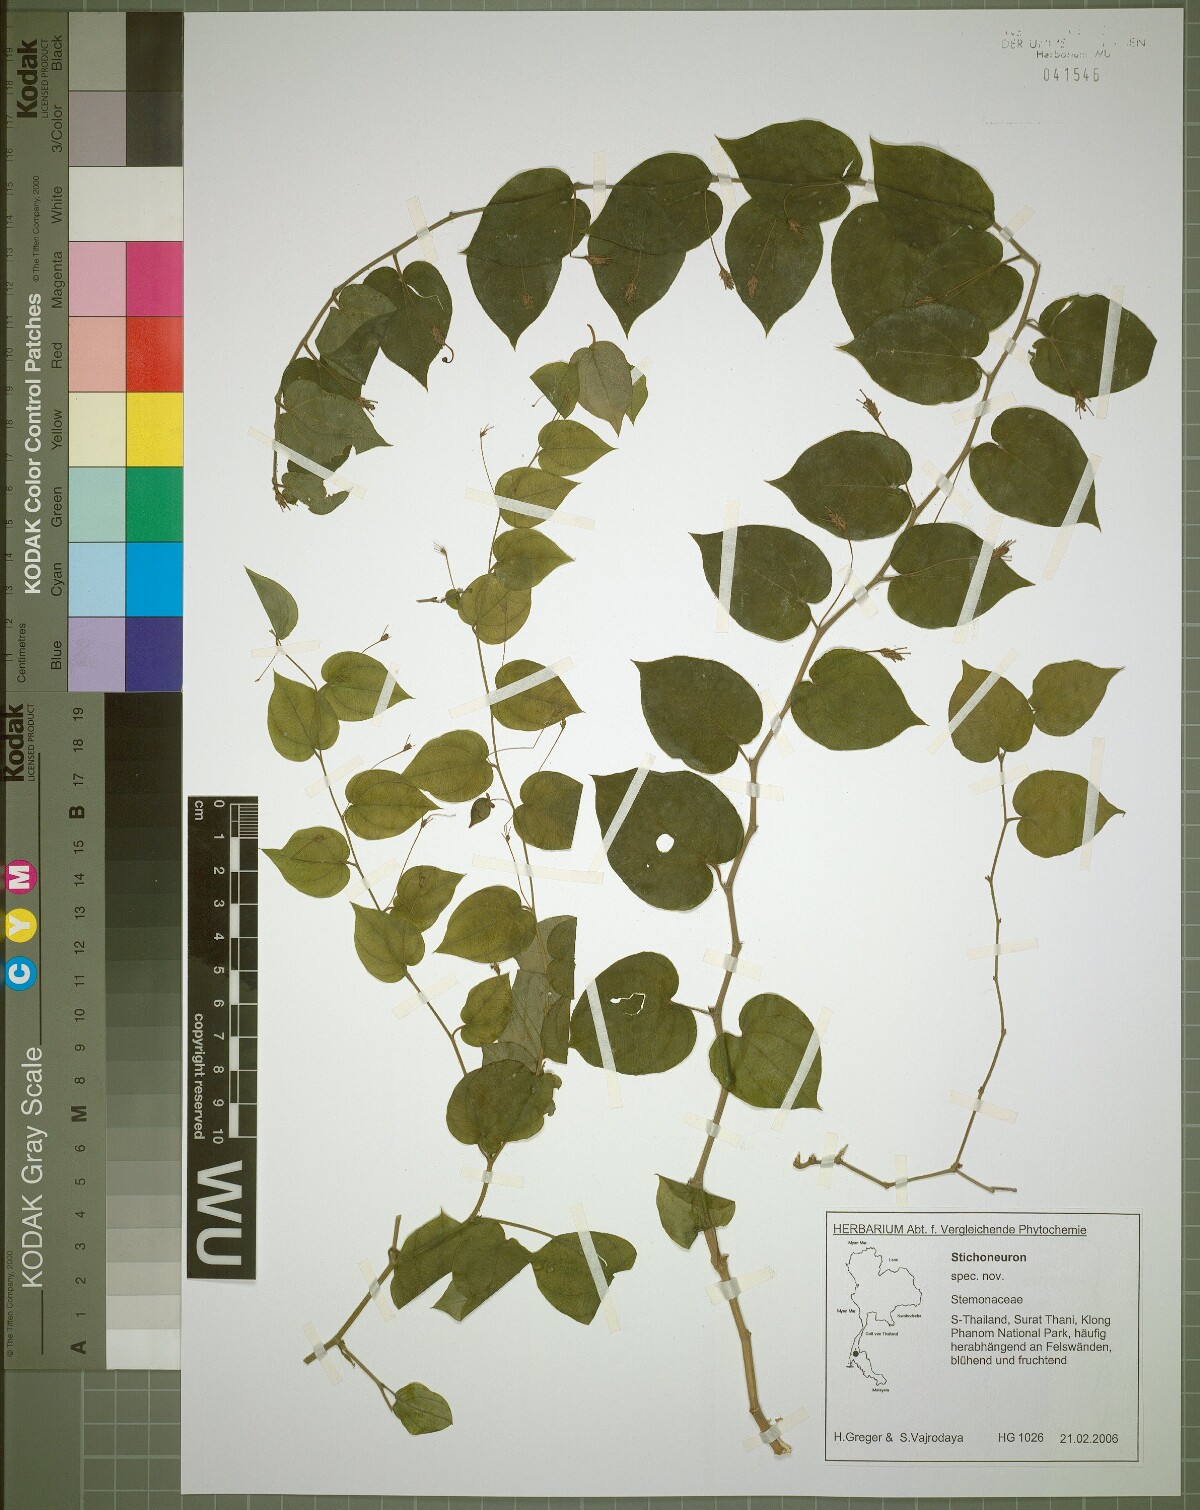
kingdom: Plantae
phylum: Tracheophyta
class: Liliopsida
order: Pandanales
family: Stemonaceae
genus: Stichoneuron
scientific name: Stichoneuron calcicola
